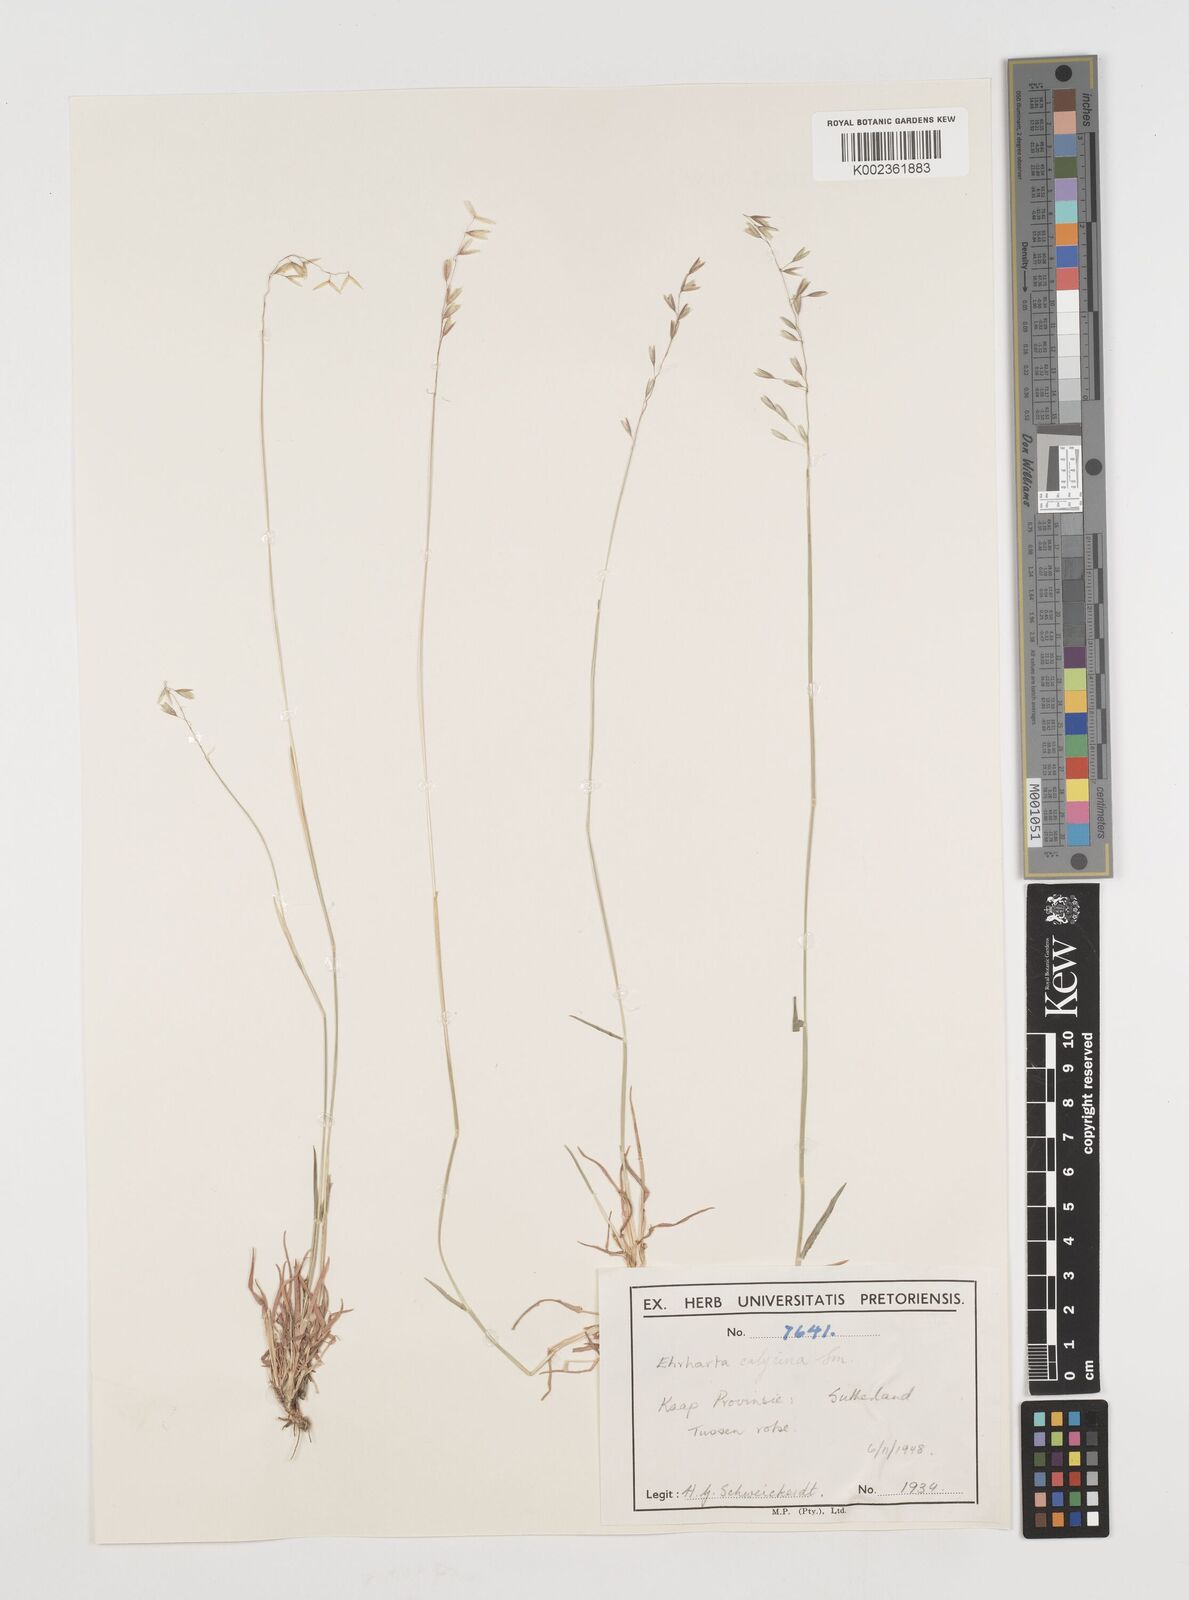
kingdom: Plantae
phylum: Tracheophyta
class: Liliopsida
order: Poales
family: Poaceae
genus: Ehrharta
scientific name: Ehrharta
